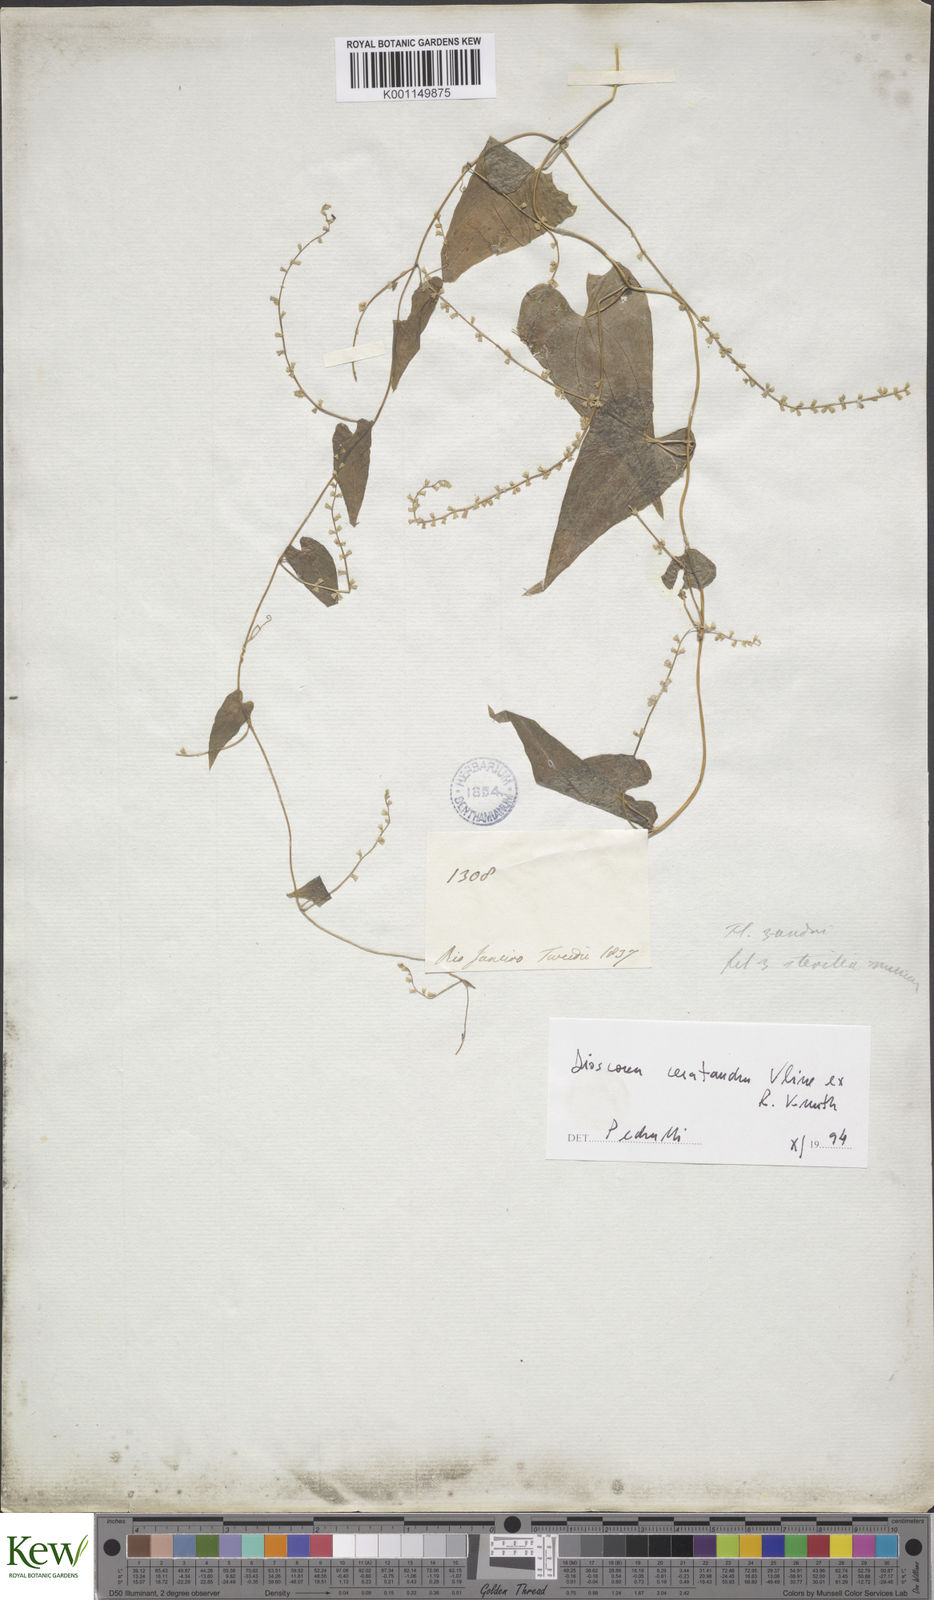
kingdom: Plantae
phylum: Tracheophyta
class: Liliopsida
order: Dioscoreales
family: Dioscoreaceae
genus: Dioscorea
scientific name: Dioscorea martiana
